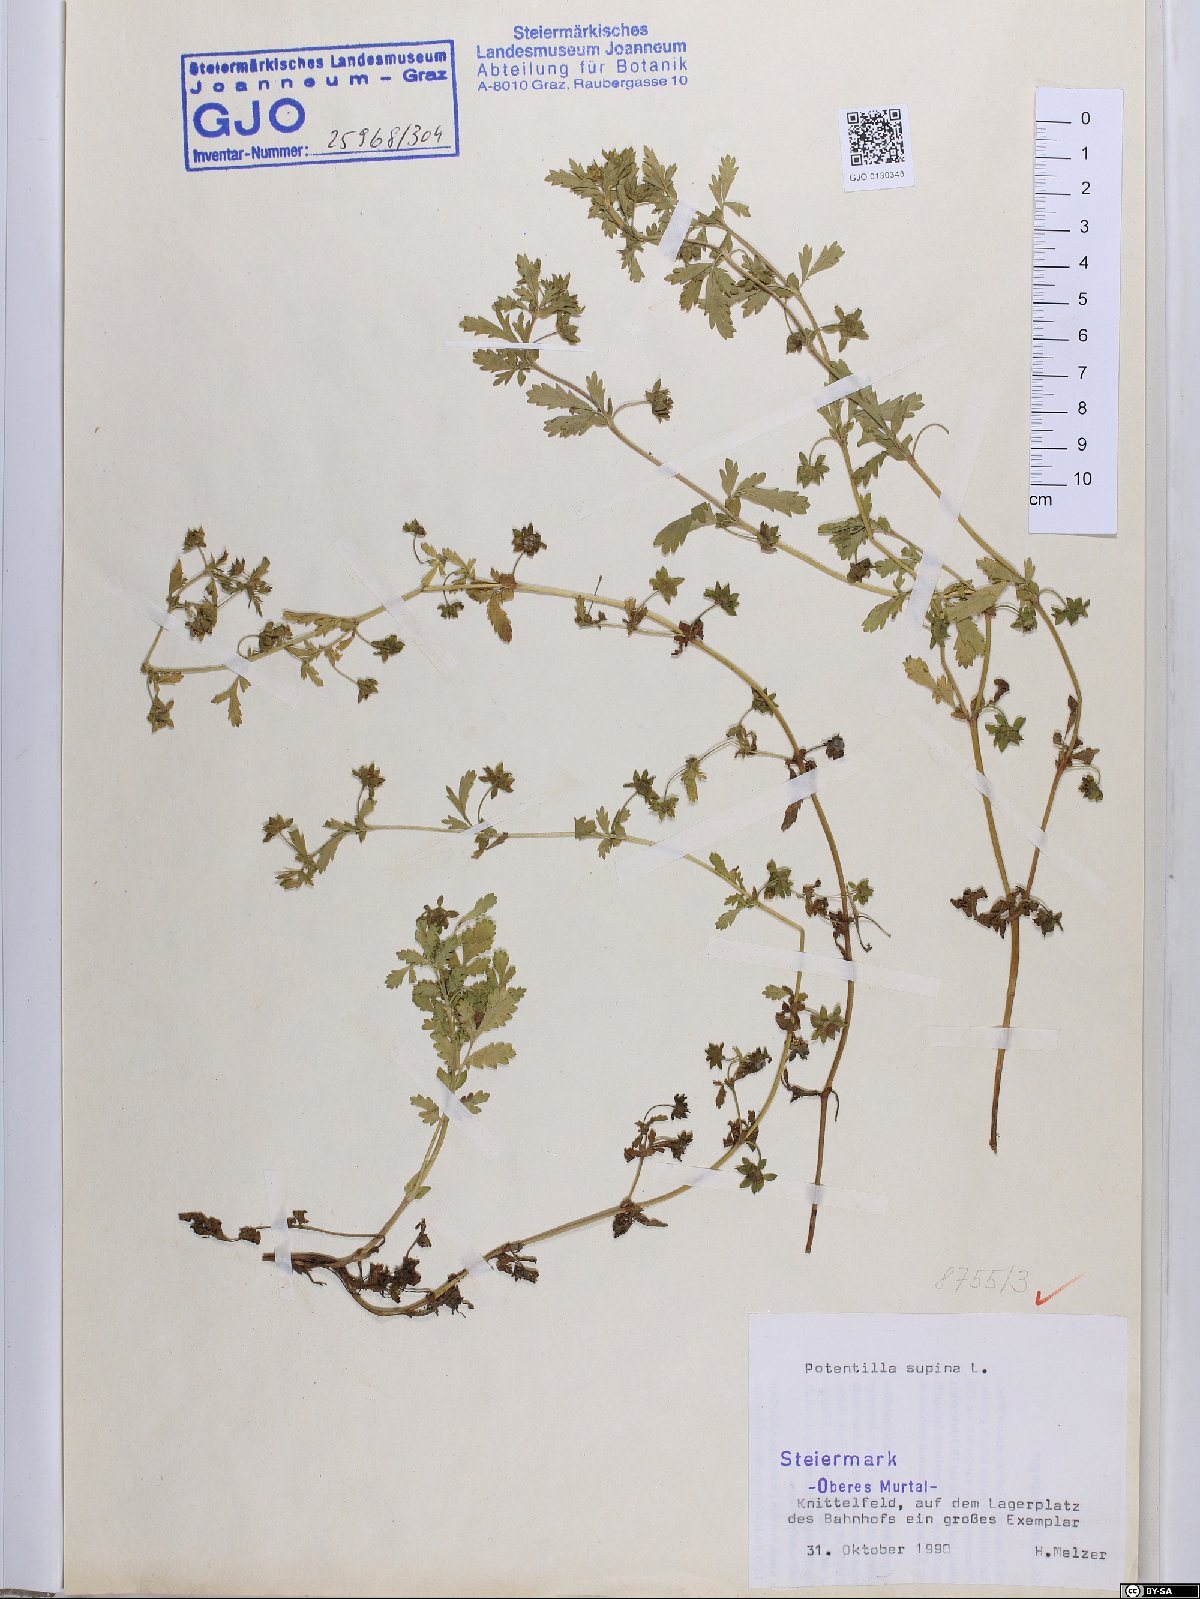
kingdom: Plantae
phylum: Tracheophyta
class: Magnoliopsida
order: Rosales
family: Rosaceae
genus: Potentilla
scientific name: Potentilla supina
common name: Prostrate cinquefoil
